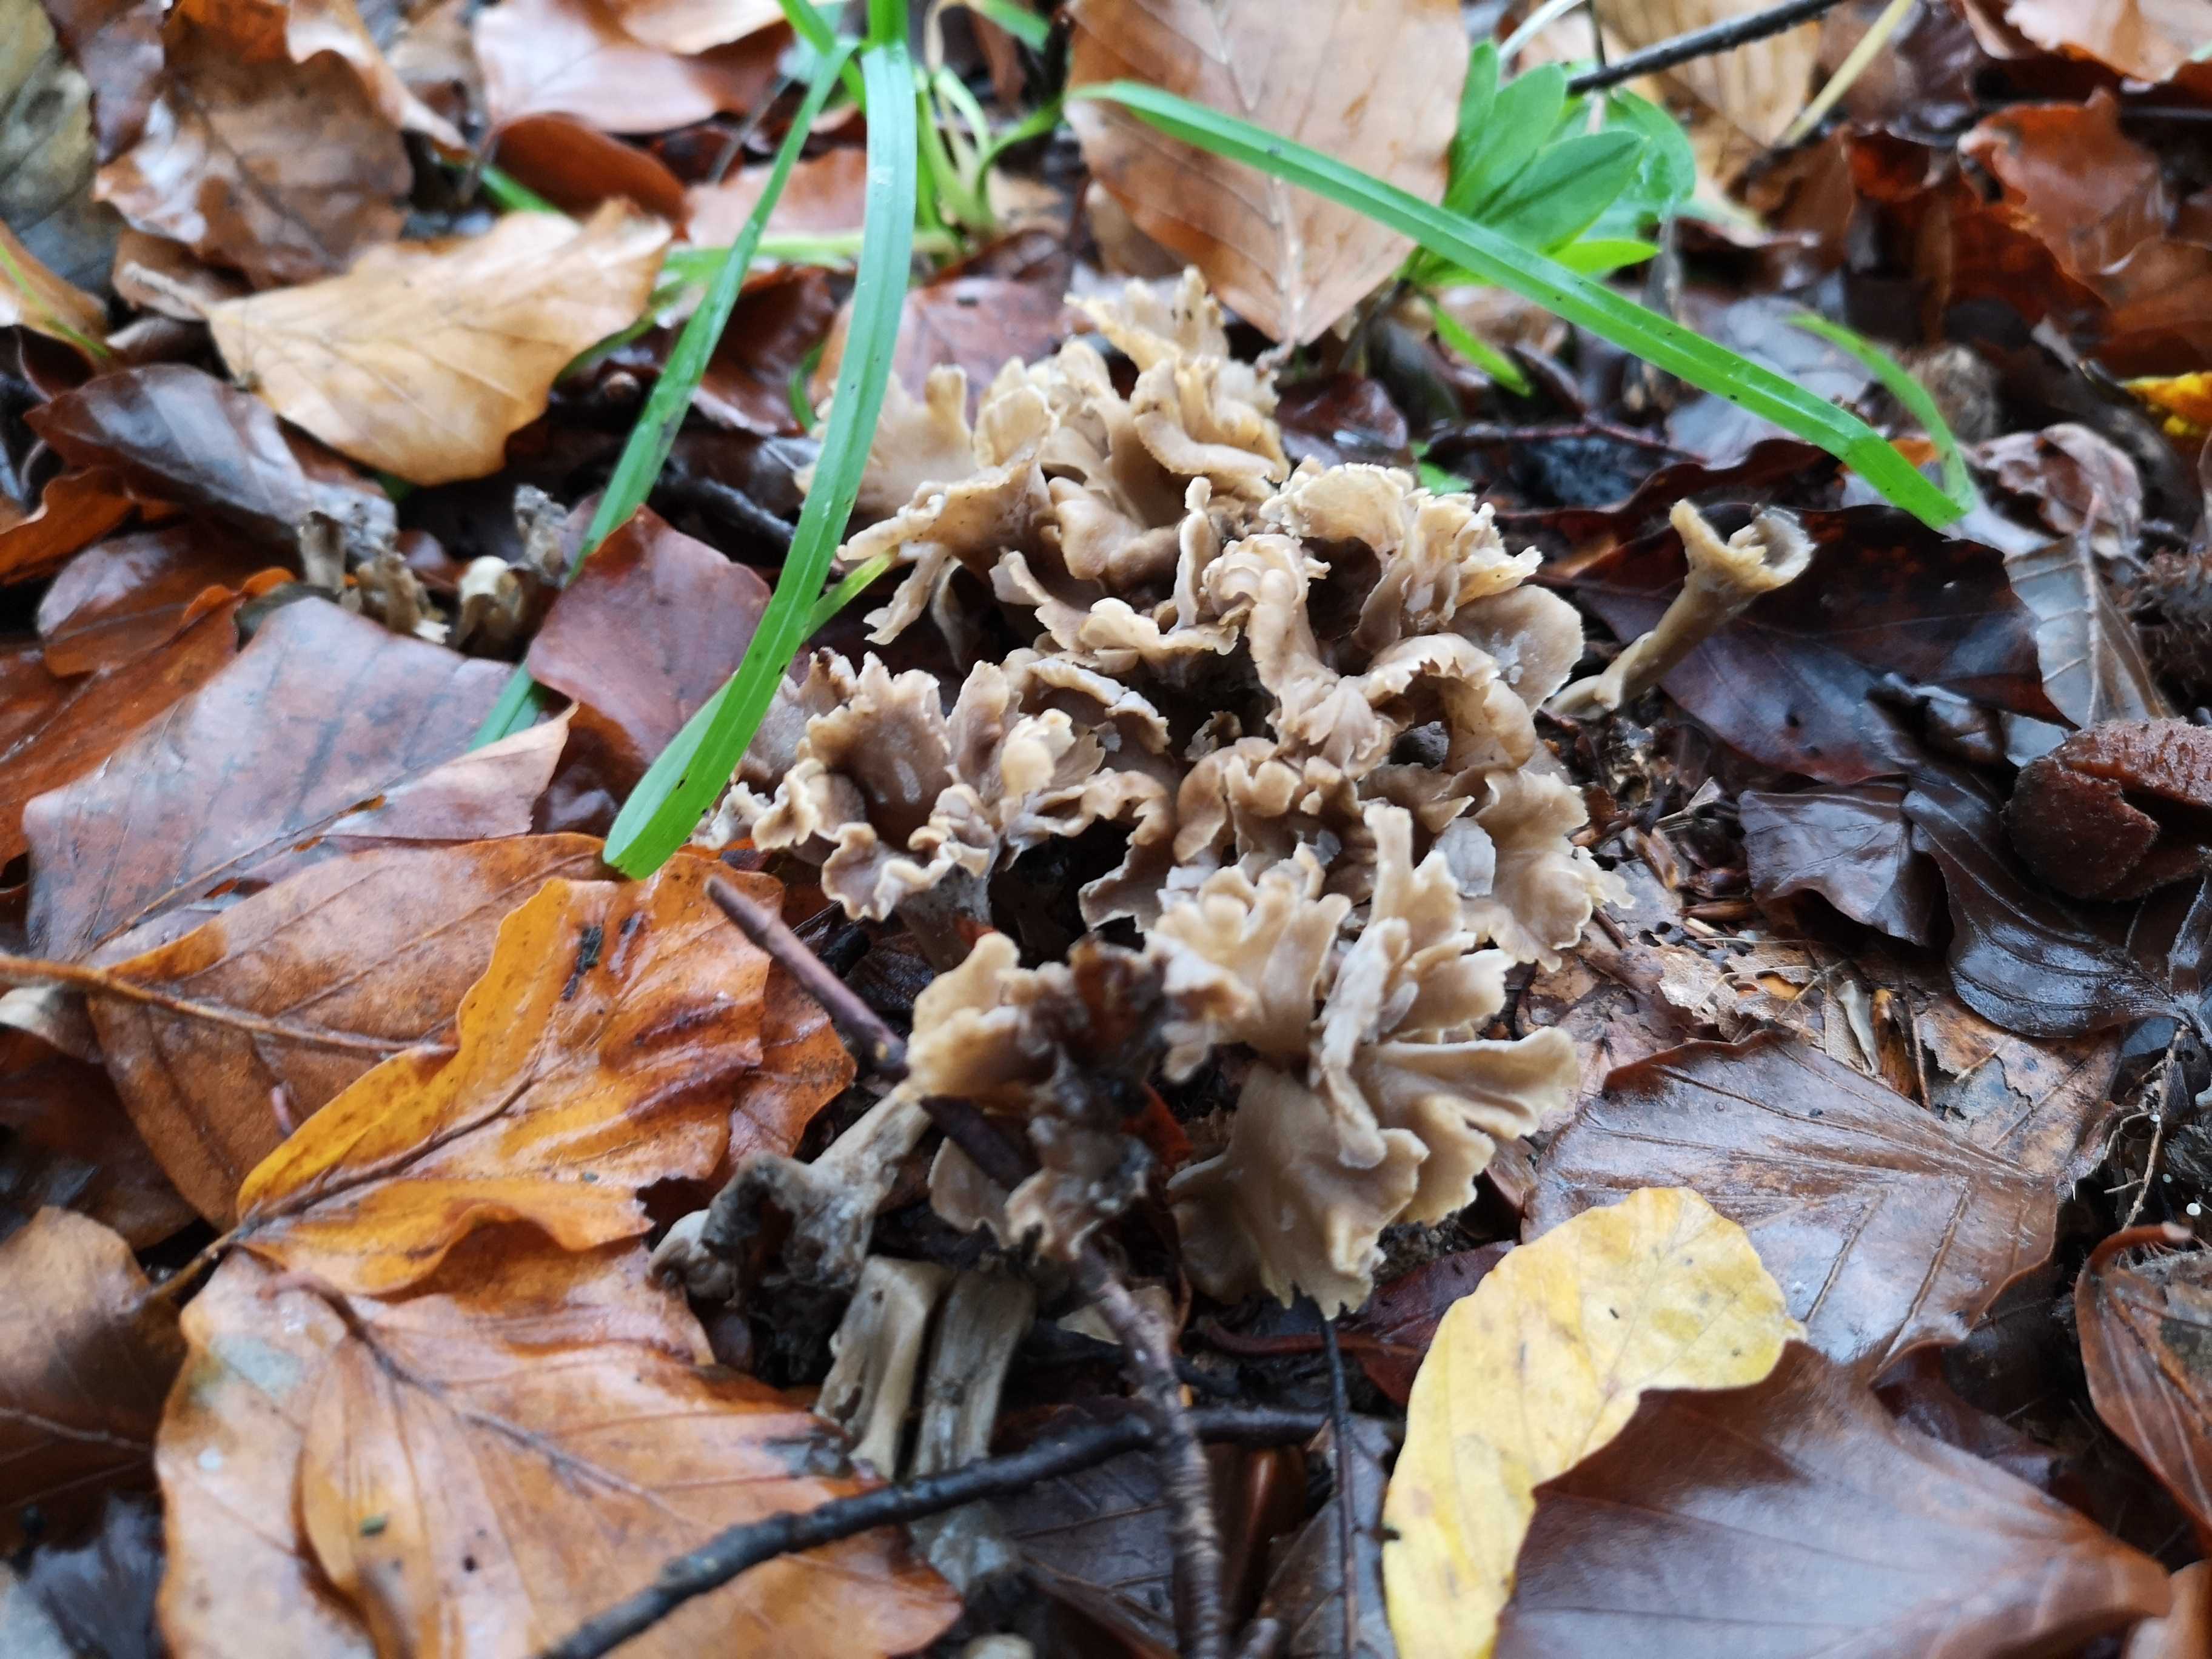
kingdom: Fungi
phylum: Basidiomycota
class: Agaricomycetes
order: Cantharellales
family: Hydnaceae
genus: Craterellus
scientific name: Craterellus undulatus
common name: liden kantarel
